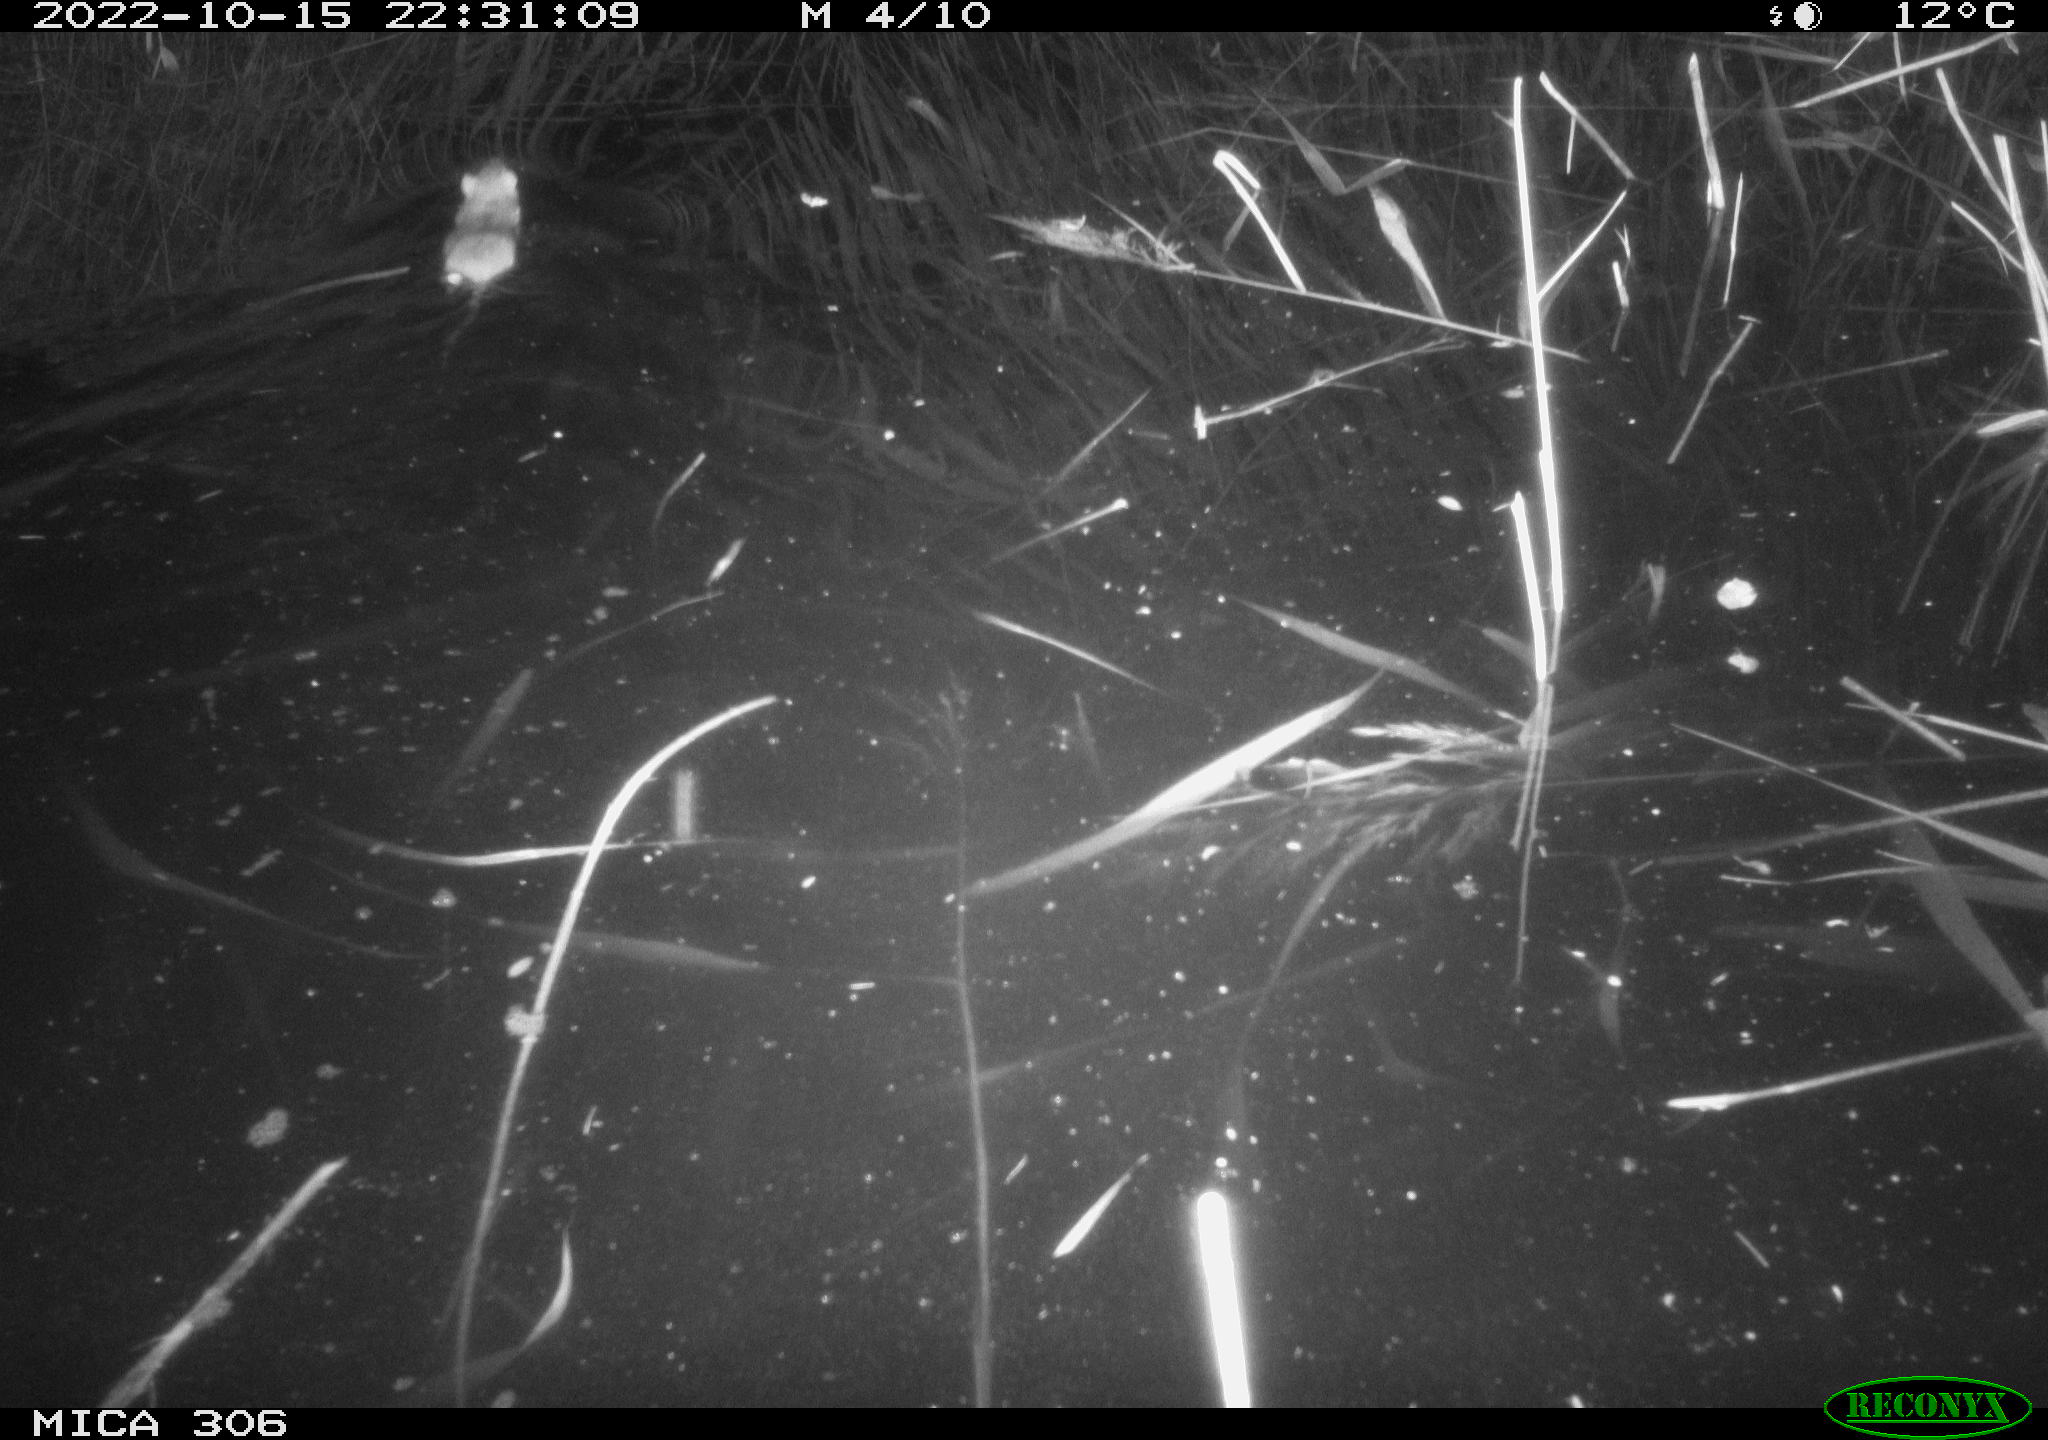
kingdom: Animalia
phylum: Chordata
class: Mammalia
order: Rodentia
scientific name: Rodentia
